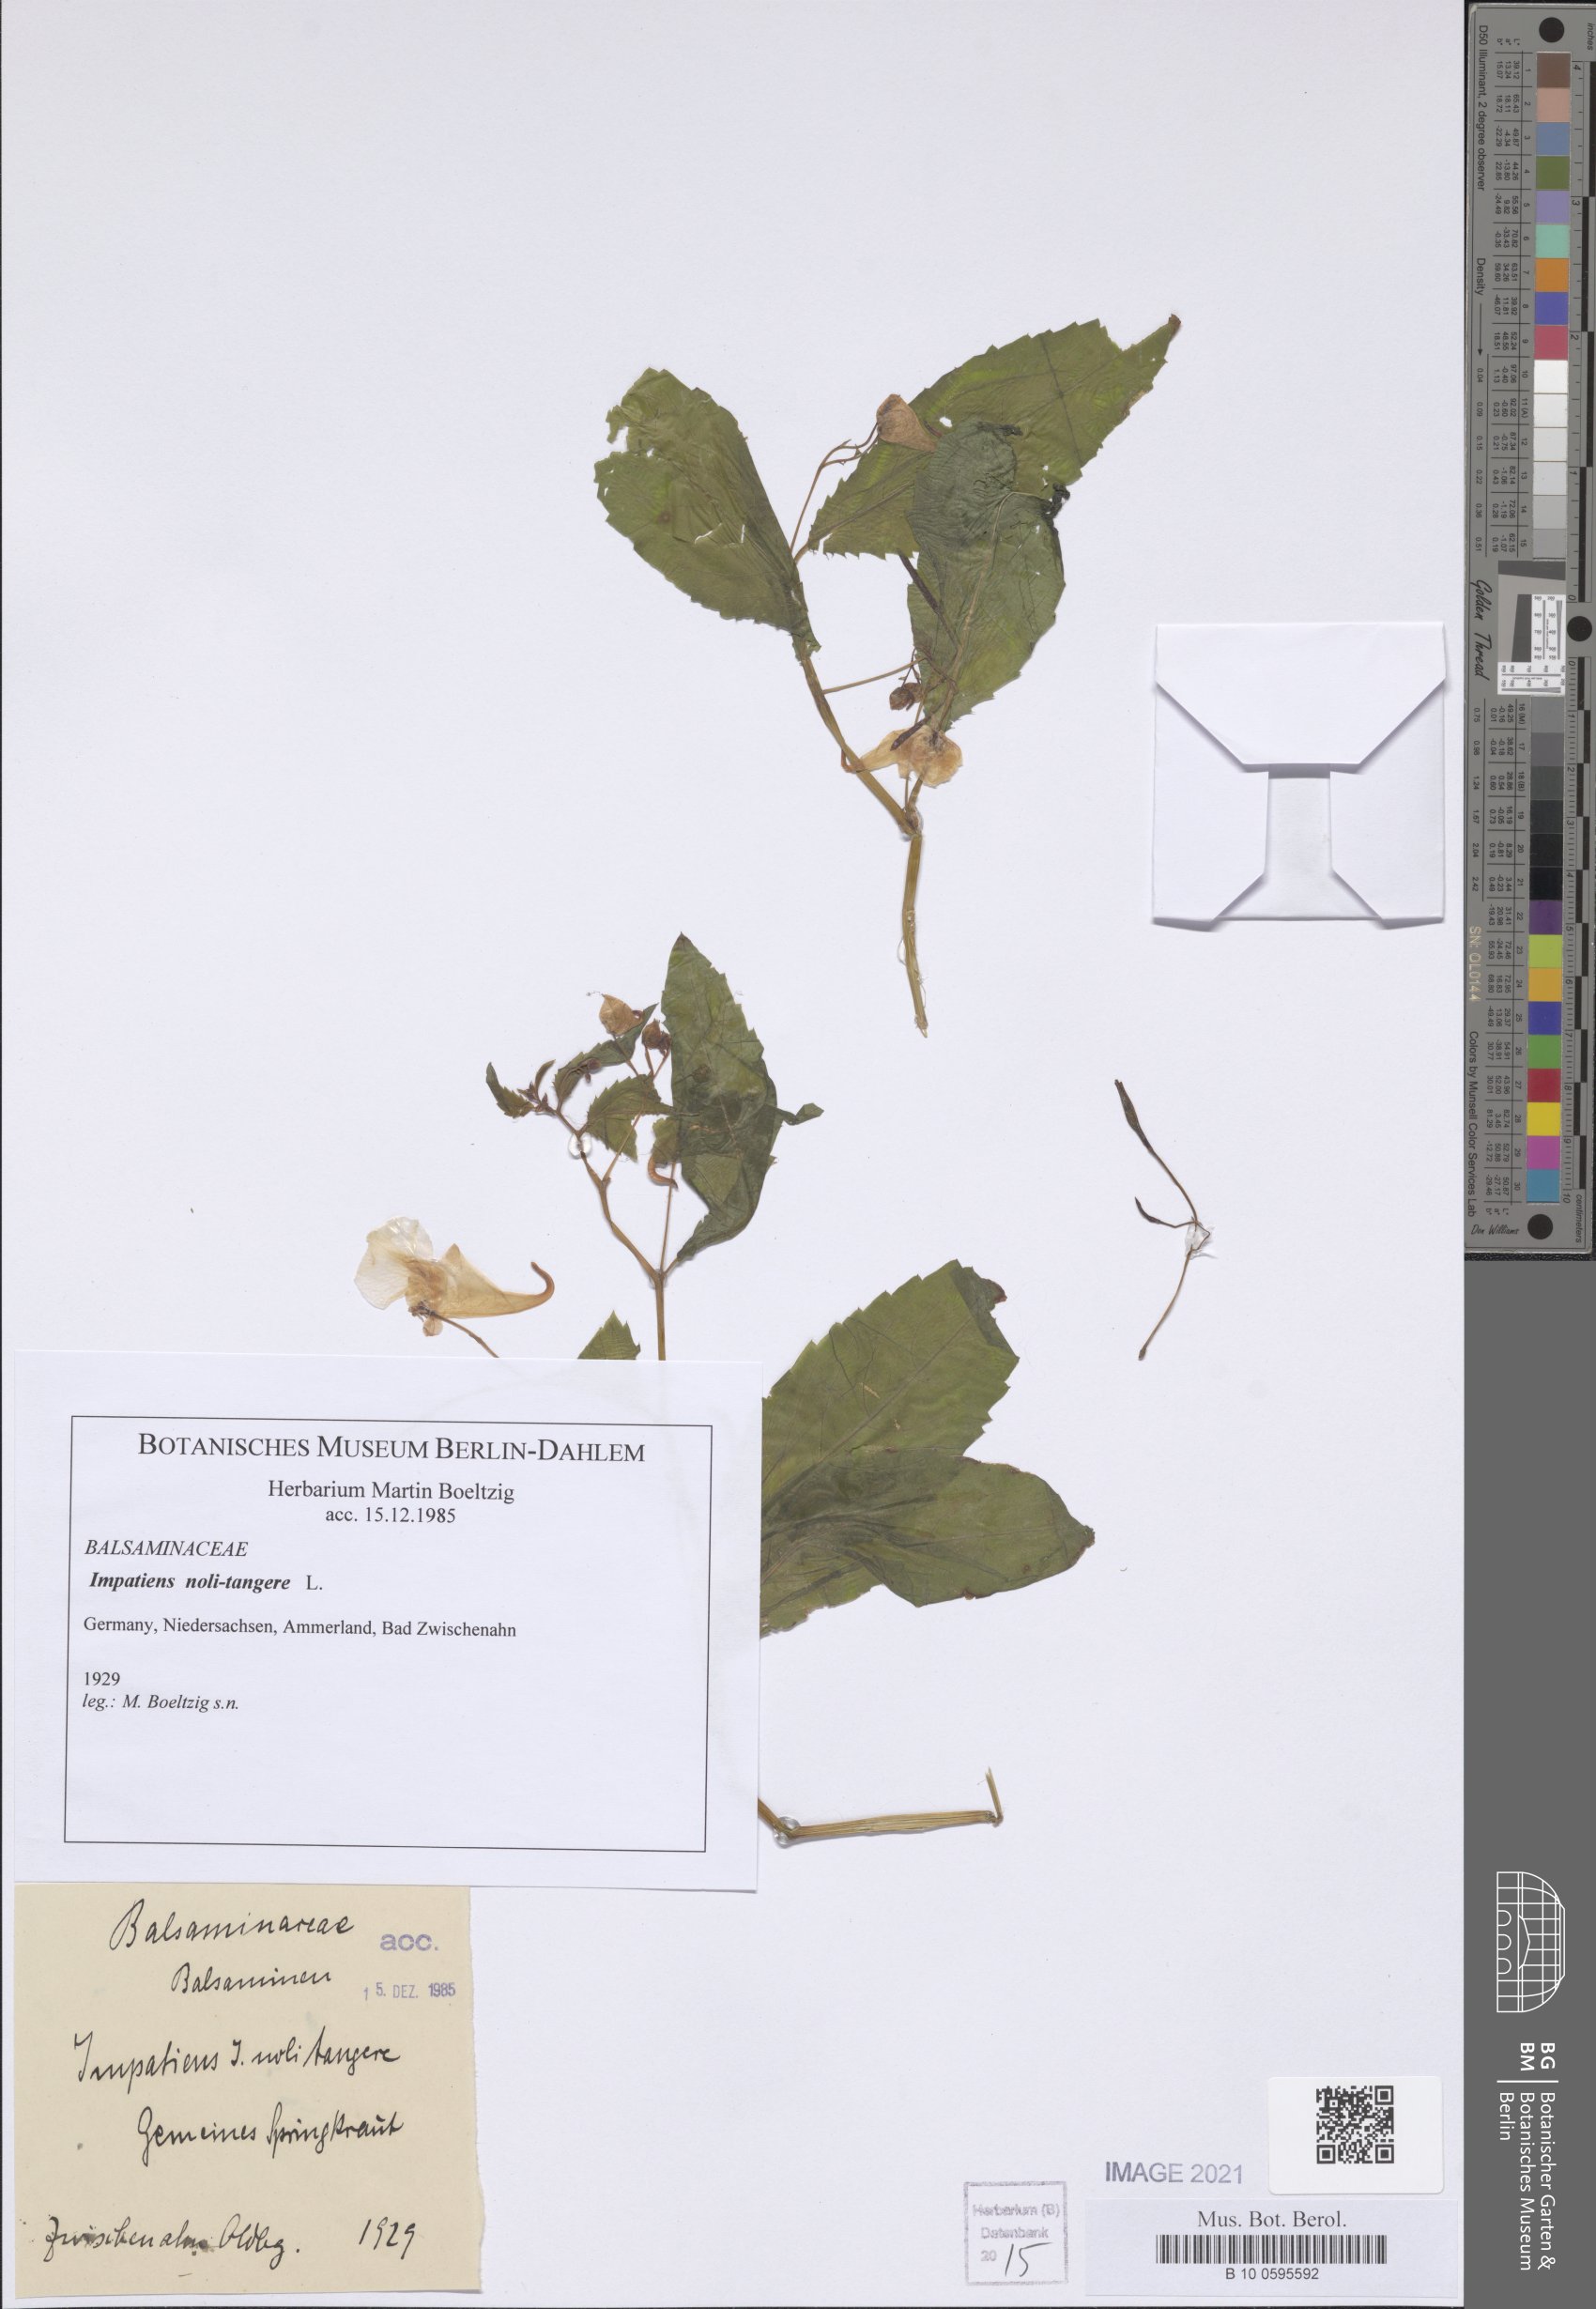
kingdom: Plantae
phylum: Tracheophyta
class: Magnoliopsida
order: Ericales
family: Balsaminaceae
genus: Impatiens
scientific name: Impatiens noli-tangere
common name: Touch-me-not balsam
